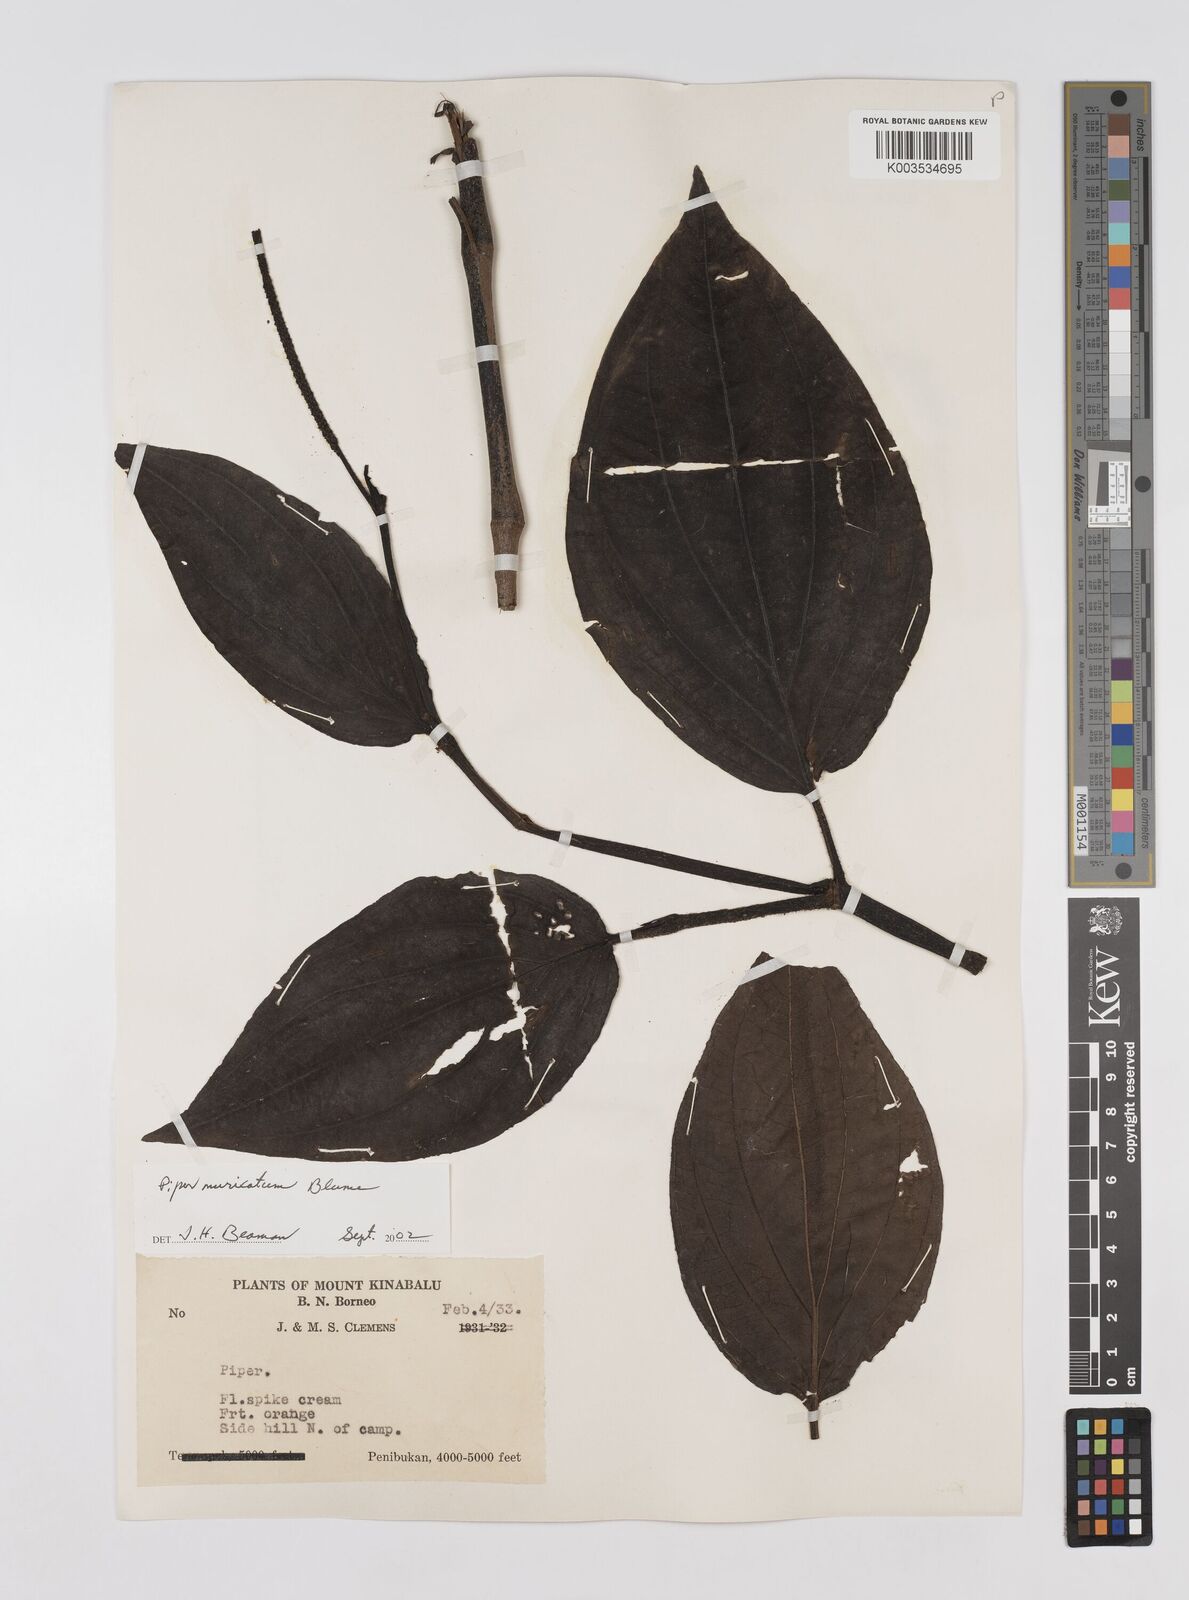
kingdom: Plantae
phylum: Tracheophyta
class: Magnoliopsida
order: Piperales
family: Piperaceae
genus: Piper
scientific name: Piper muricatum
